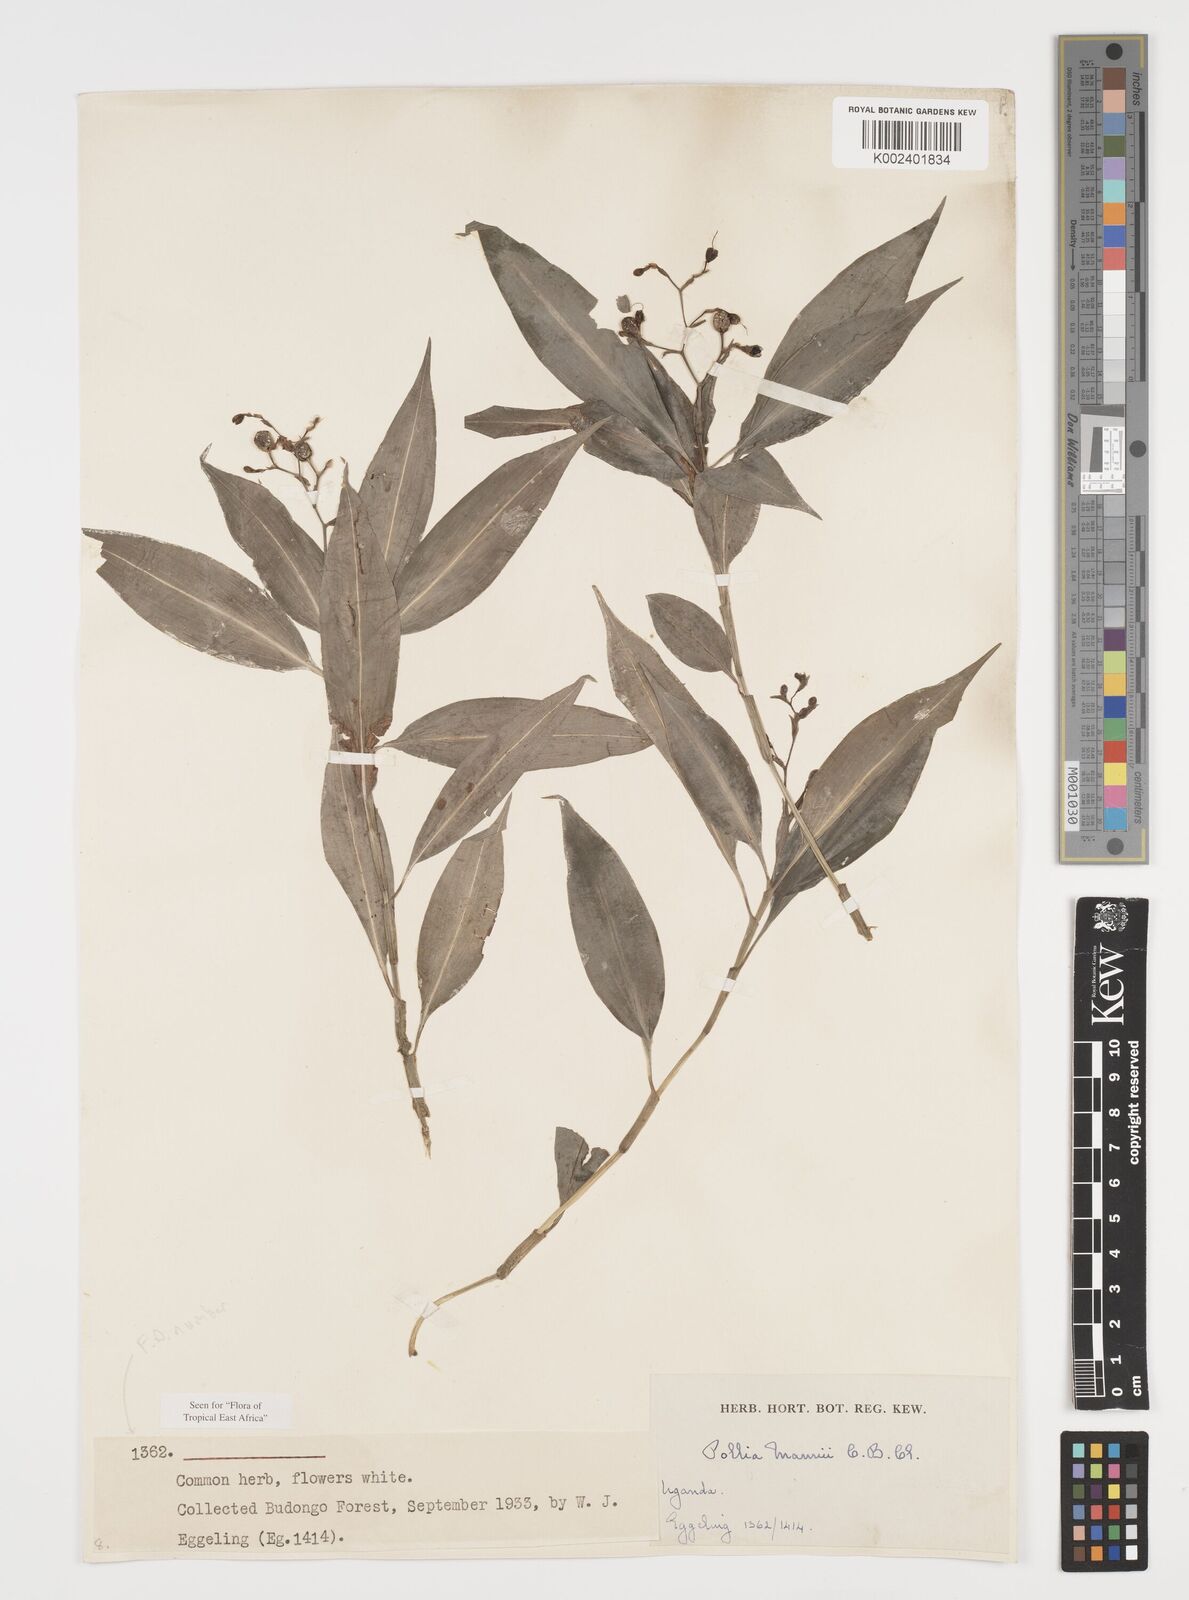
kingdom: Plantae
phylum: Tracheophyta
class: Liliopsida
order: Commelinales
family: Commelinaceae
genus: Pollia
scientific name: Pollia mannii
